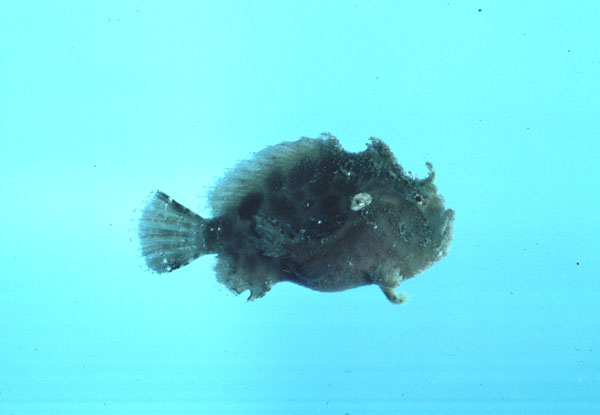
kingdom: Animalia
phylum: Chordata
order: Lophiiformes
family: Antennariidae
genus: Antennarius
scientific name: Antennarius
